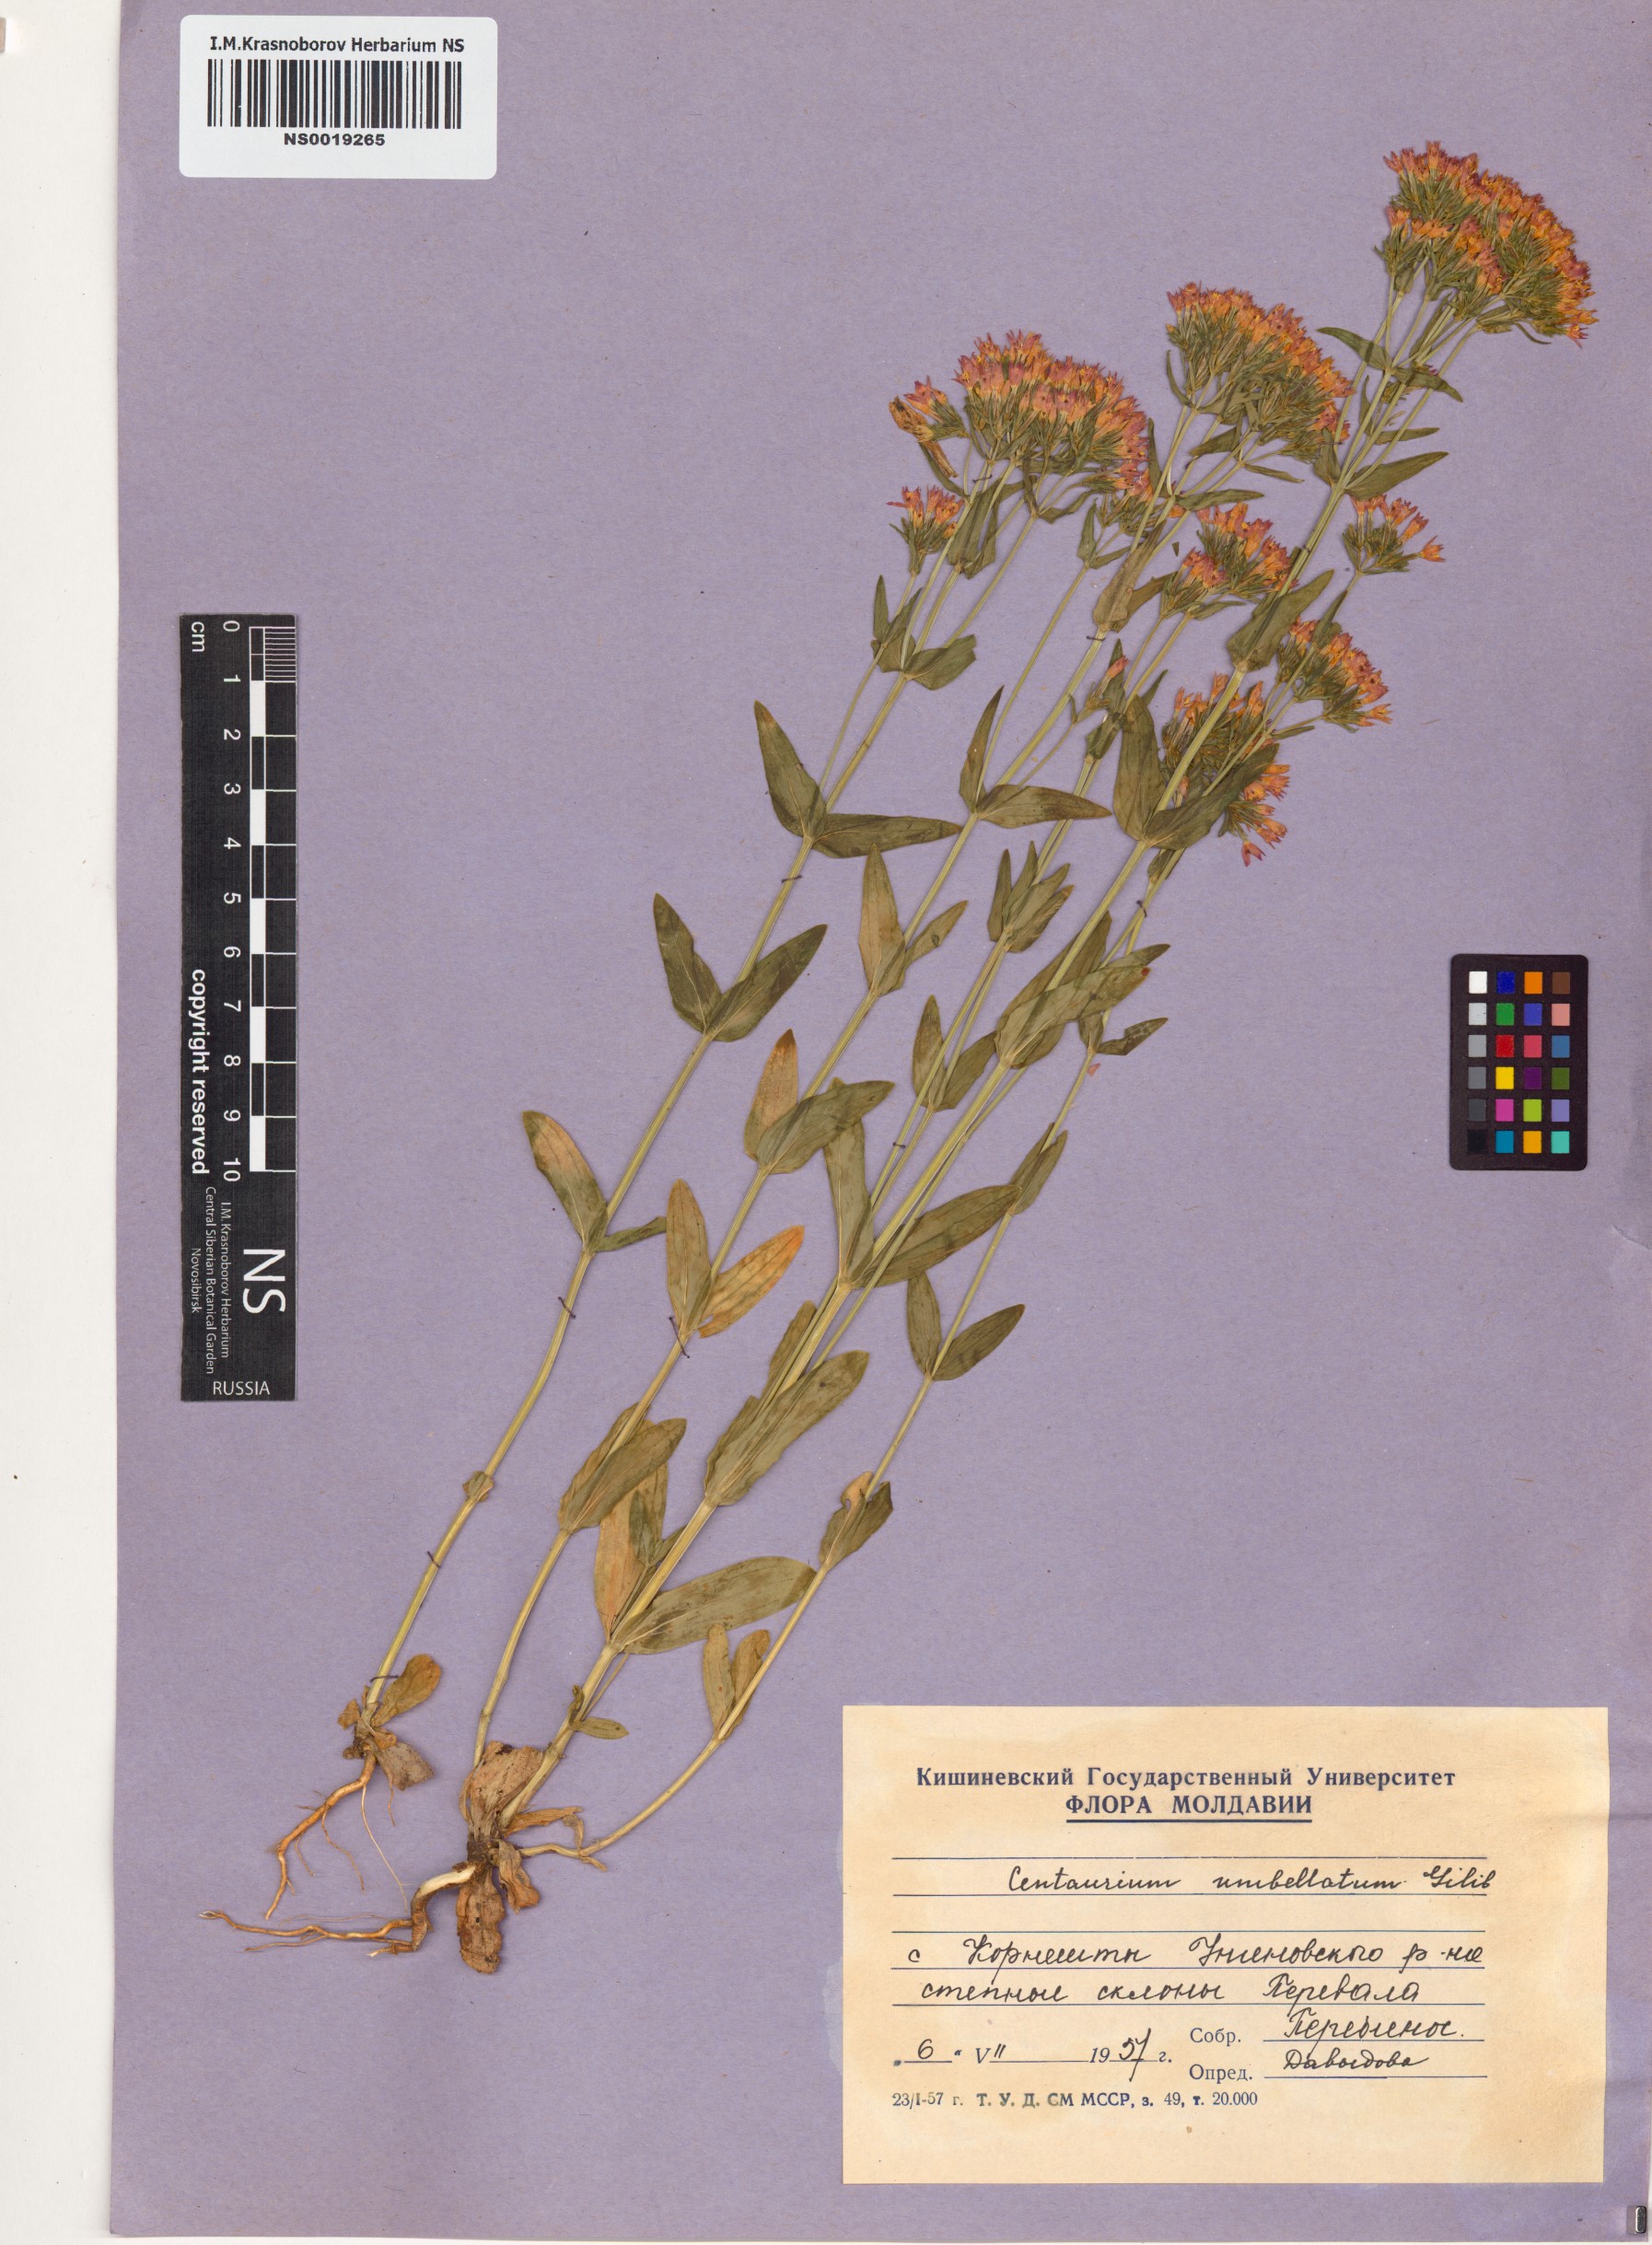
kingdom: Plantae
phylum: Tracheophyta
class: Magnoliopsida
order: Gentianales
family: Gentianaceae
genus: Centaurium
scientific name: Centaurium erythraea
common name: Common centaury
